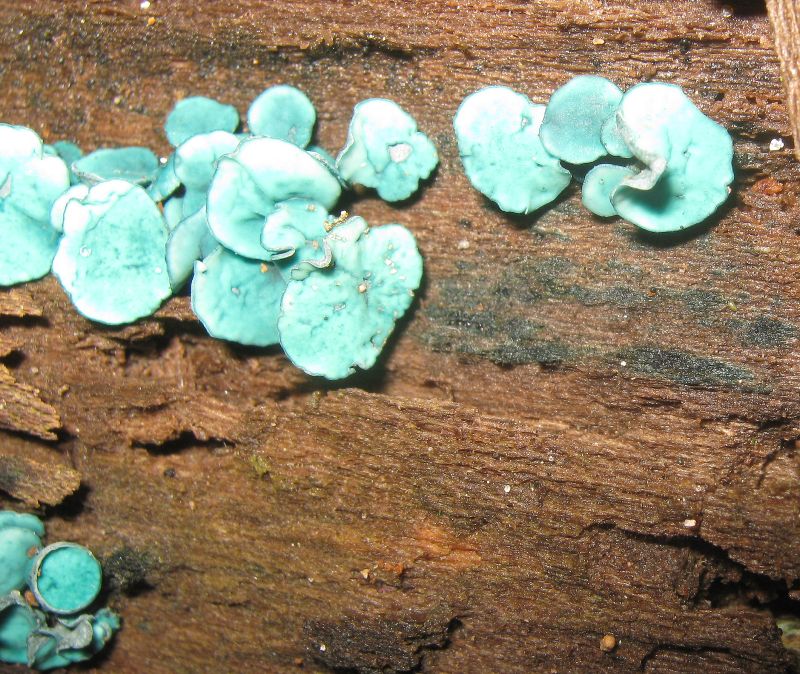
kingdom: Fungi
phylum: Ascomycota
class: Leotiomycetes
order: Helotiales
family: Chlorociboriaceae
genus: Chlorociboria
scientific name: Chlorociboria aeruginascens
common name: almindelig grønskive
